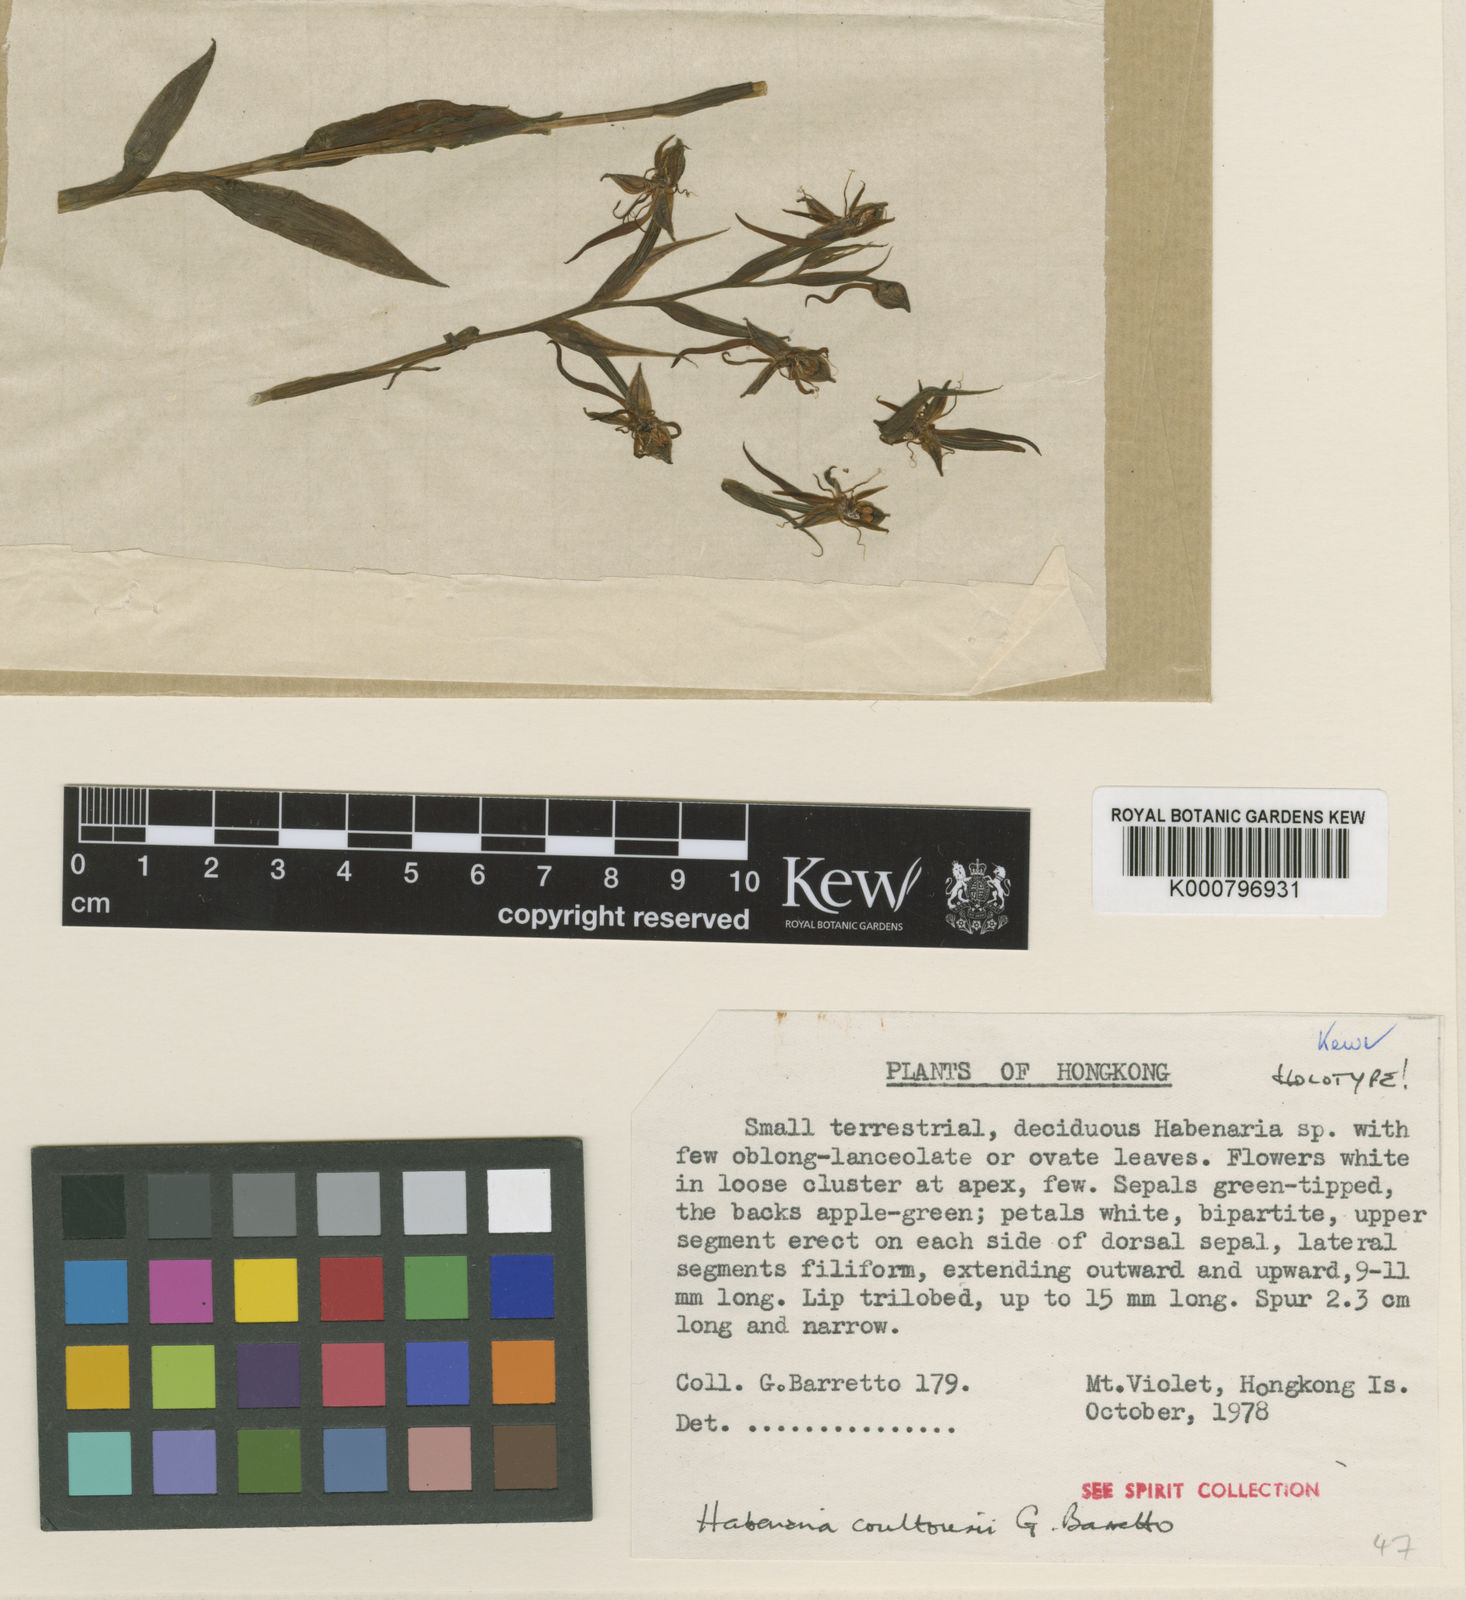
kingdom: Plantae
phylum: Tracheophyta
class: Liliopsida
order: Asparagales
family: Orchidaceae
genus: Habenaria
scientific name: Habenaria coultousii
